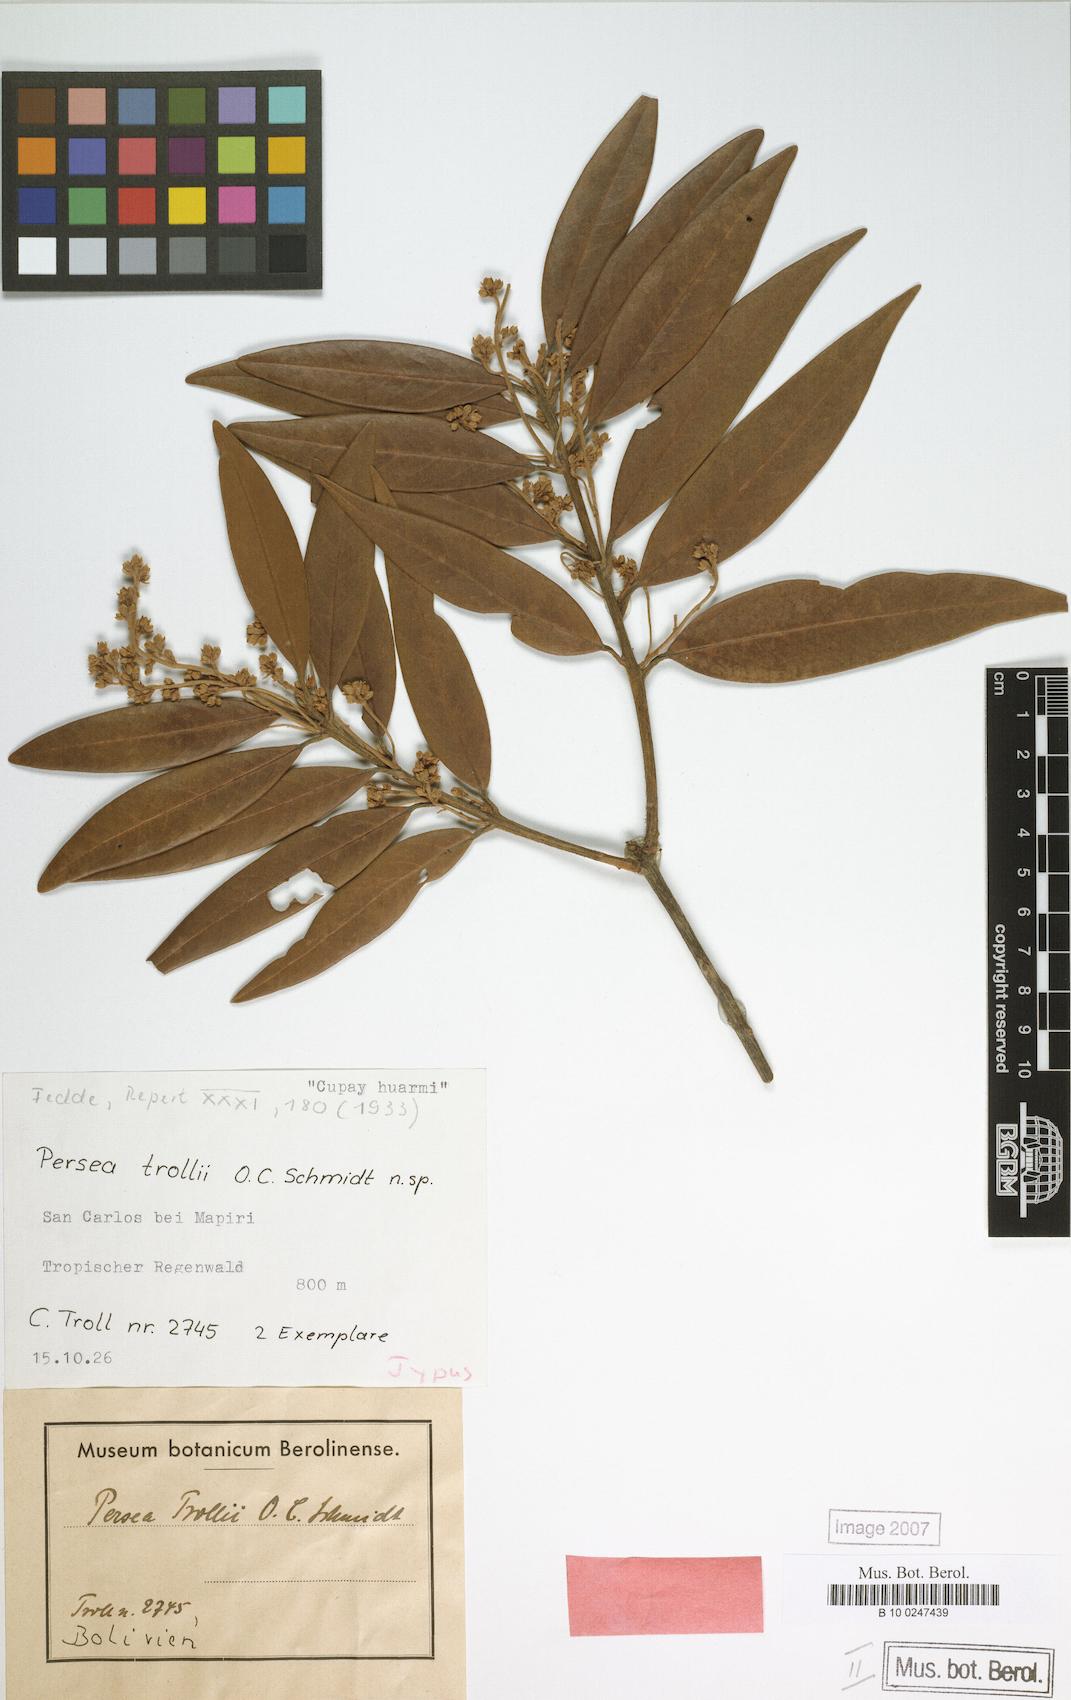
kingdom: Plantae
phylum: Tracheophyta
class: Magnoliopsida
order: Laurales
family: Lauraceae
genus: Persea
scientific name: Persea trollii
